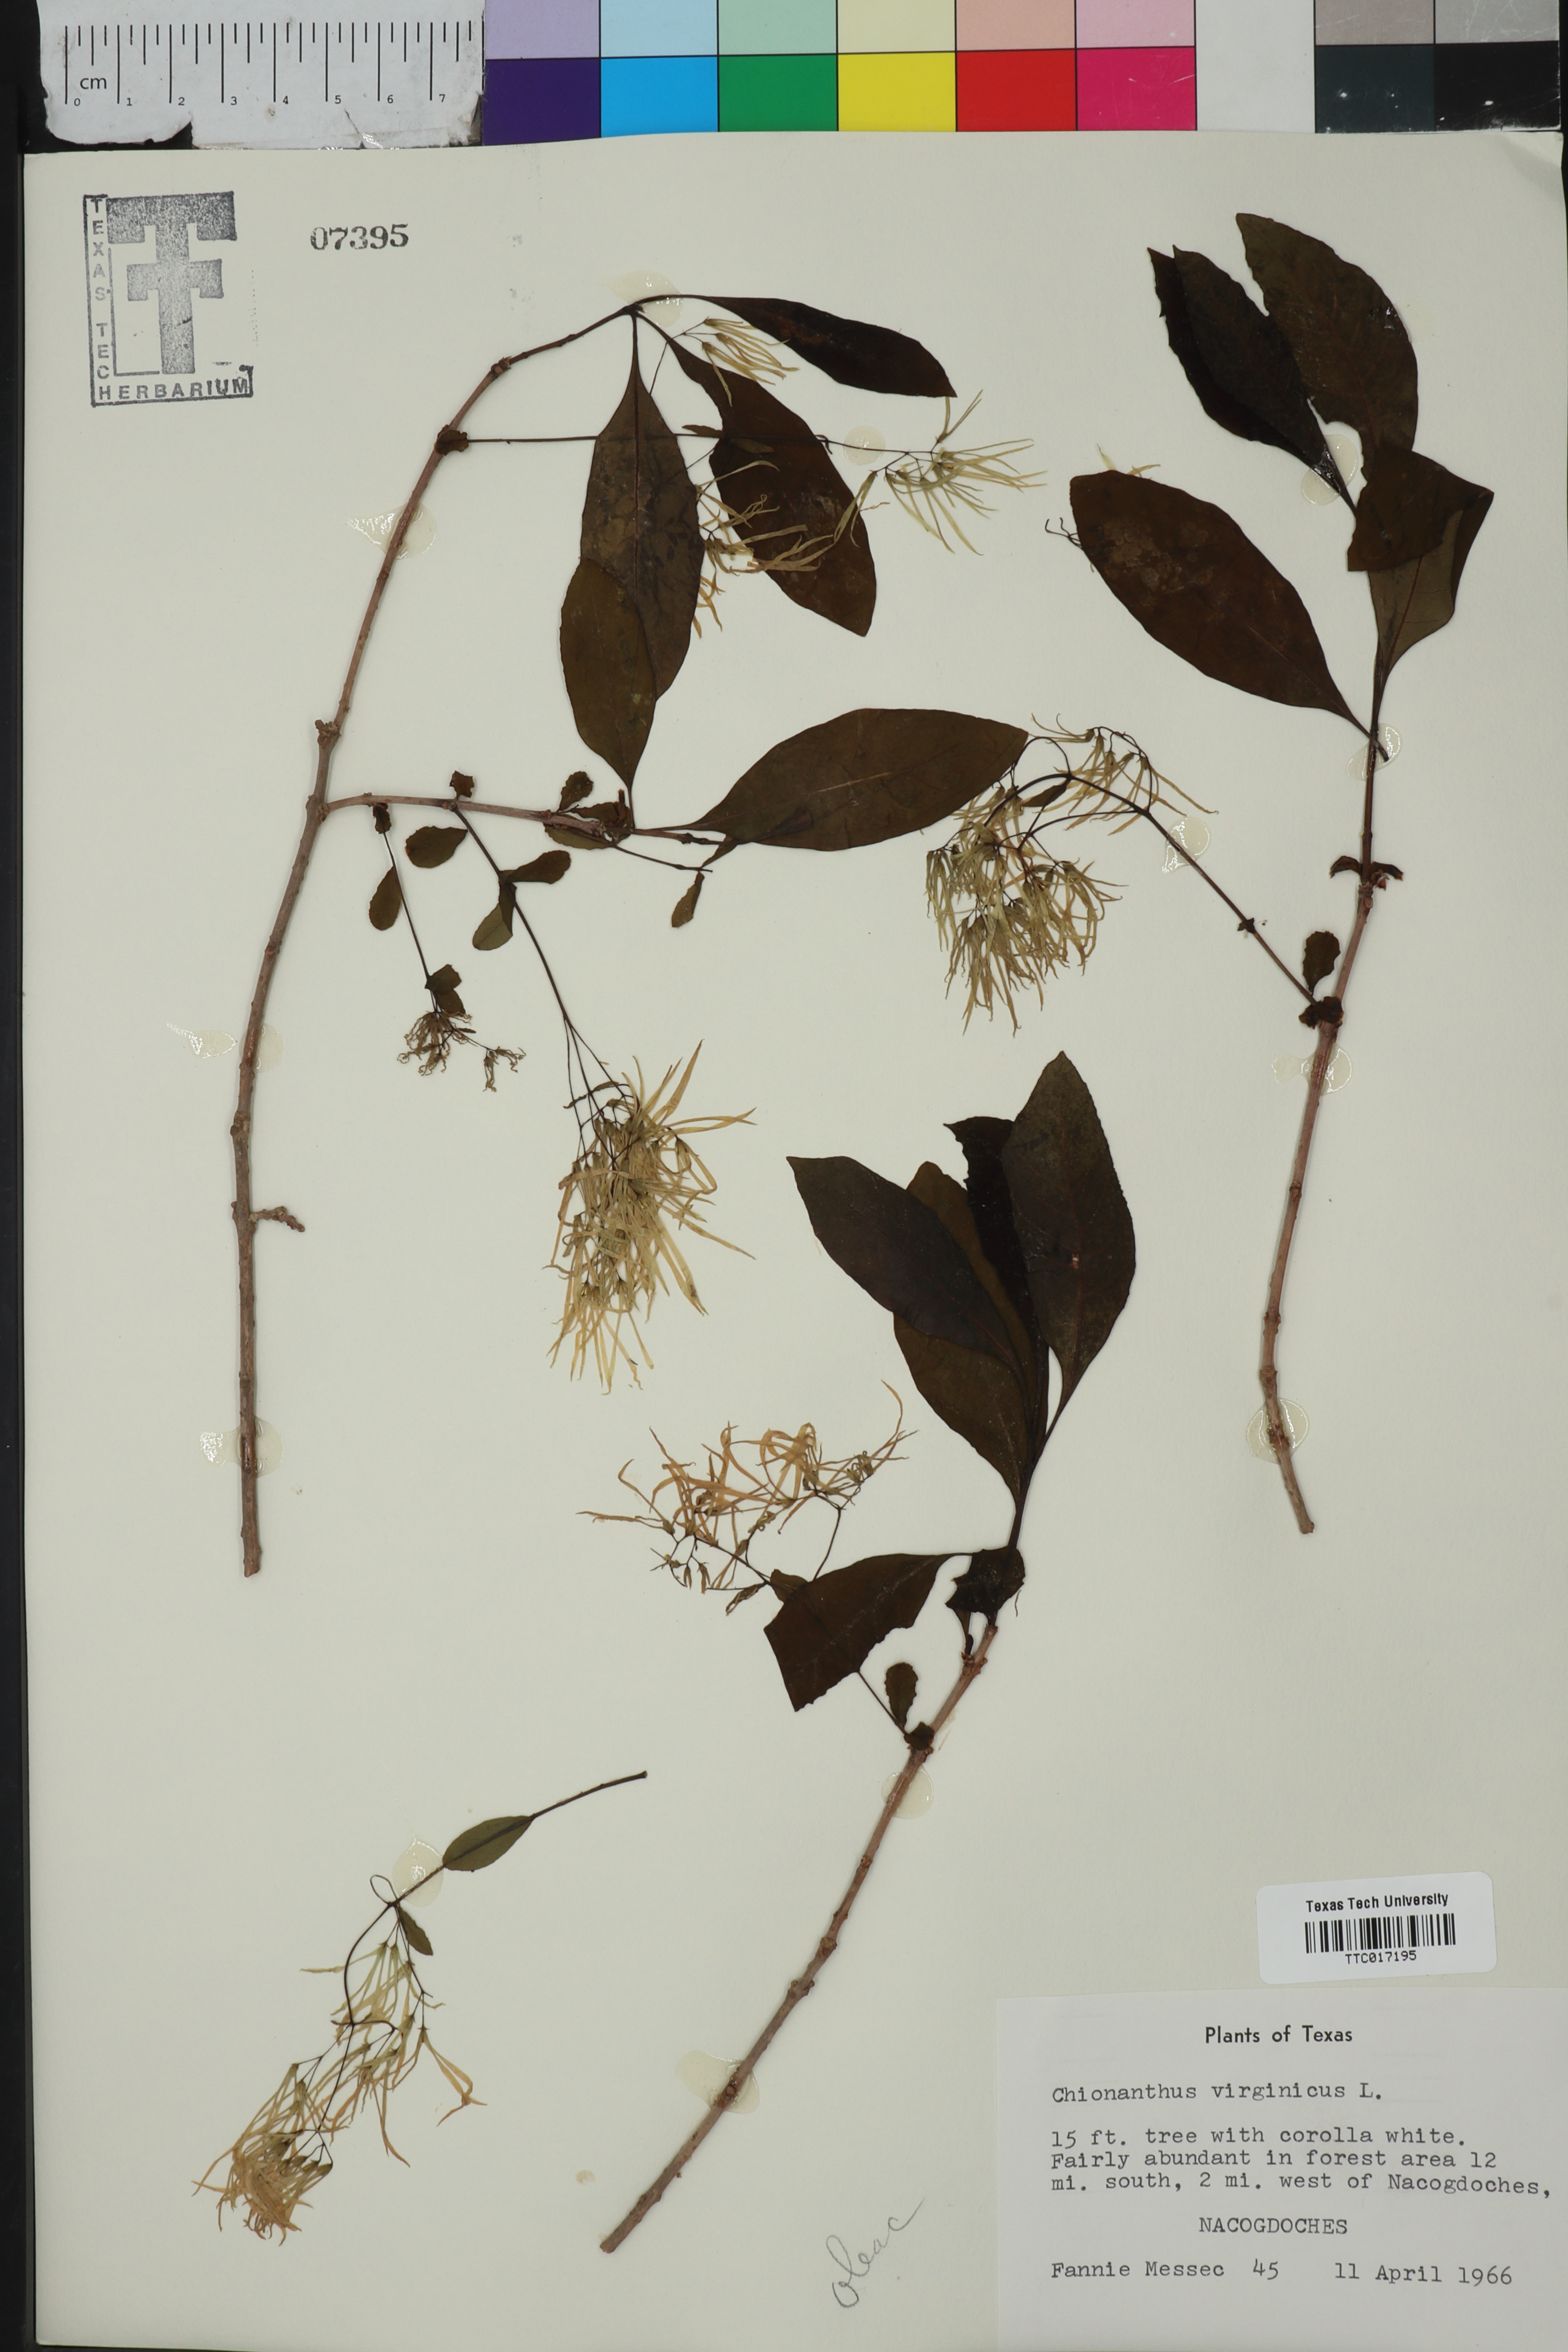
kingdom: Plantae
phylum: Tracheophyta
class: Magnoliopsida
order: Lamiales
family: Oleaceae
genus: Chionanthus
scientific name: Chionanthus virginicus
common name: American fringetree
